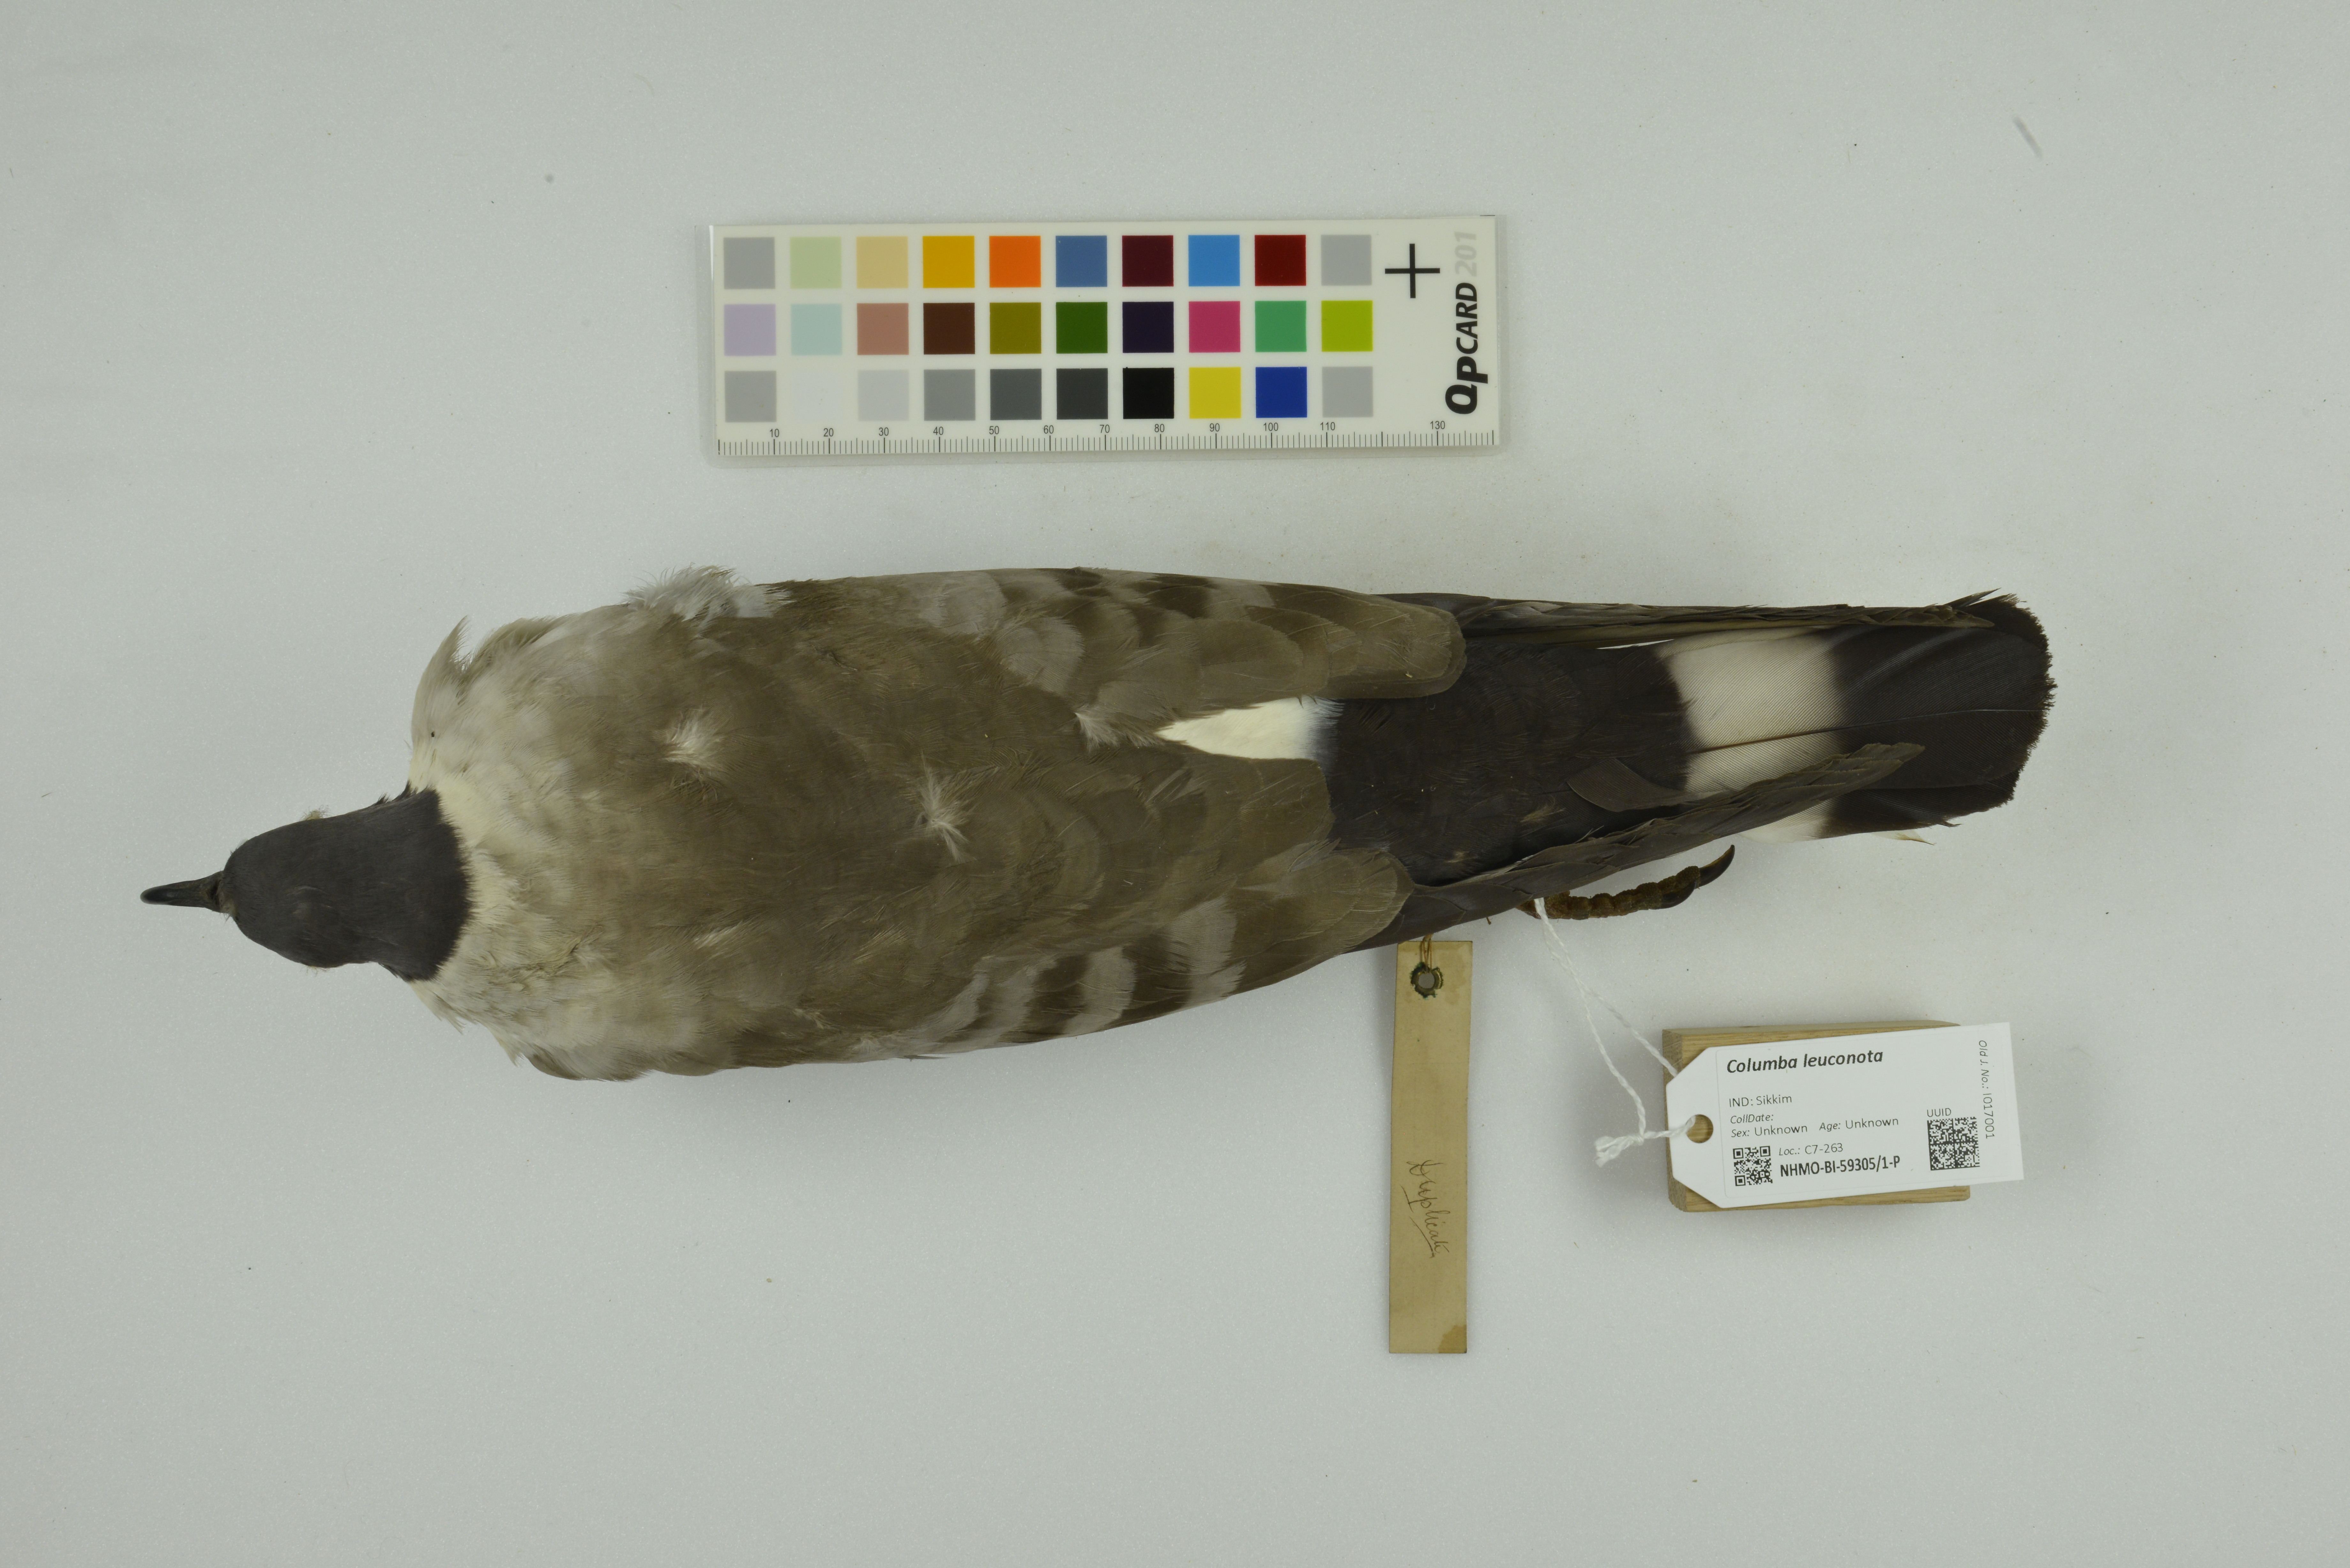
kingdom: Animalia
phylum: Chordata
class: Aves
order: Columbiformes
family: Columbidae
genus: Columba
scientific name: Columba leuconota
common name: Snow pigeon
